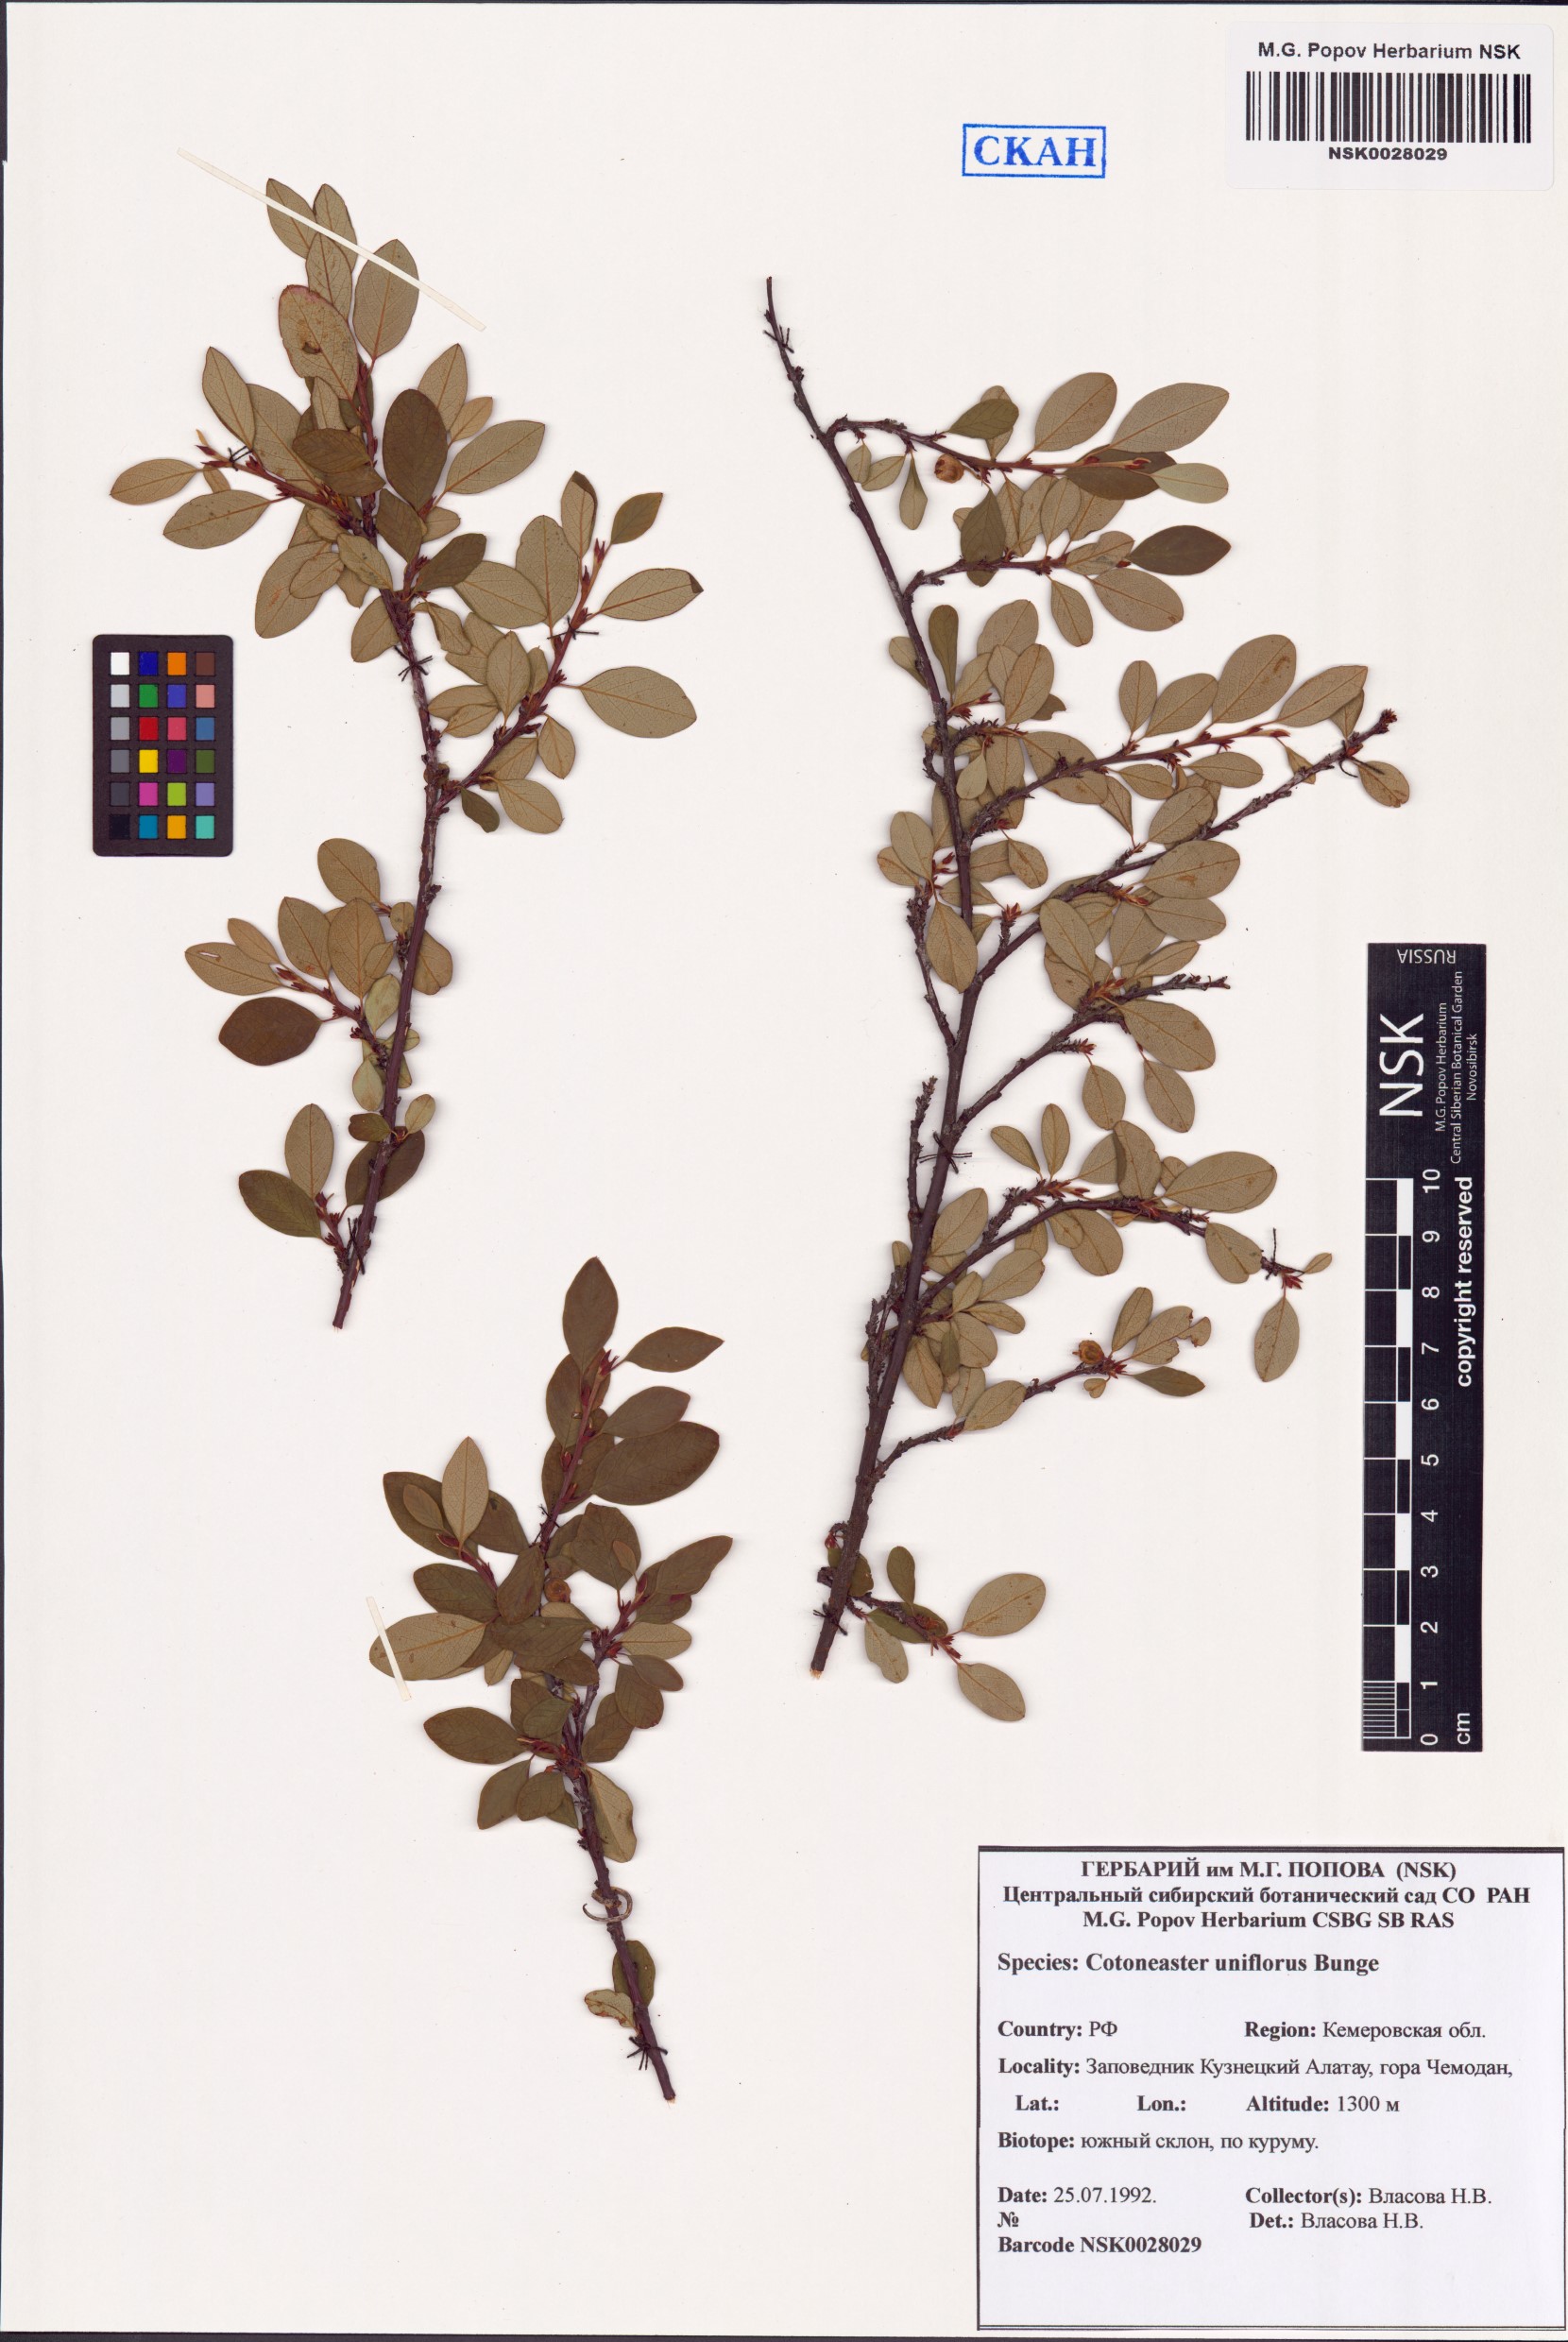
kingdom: Plantae
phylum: Tracheophyta
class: Magnoliopsida
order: Rosales
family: Rosaceae
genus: Cotoneaster
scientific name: Cotoneaster uniflorus
